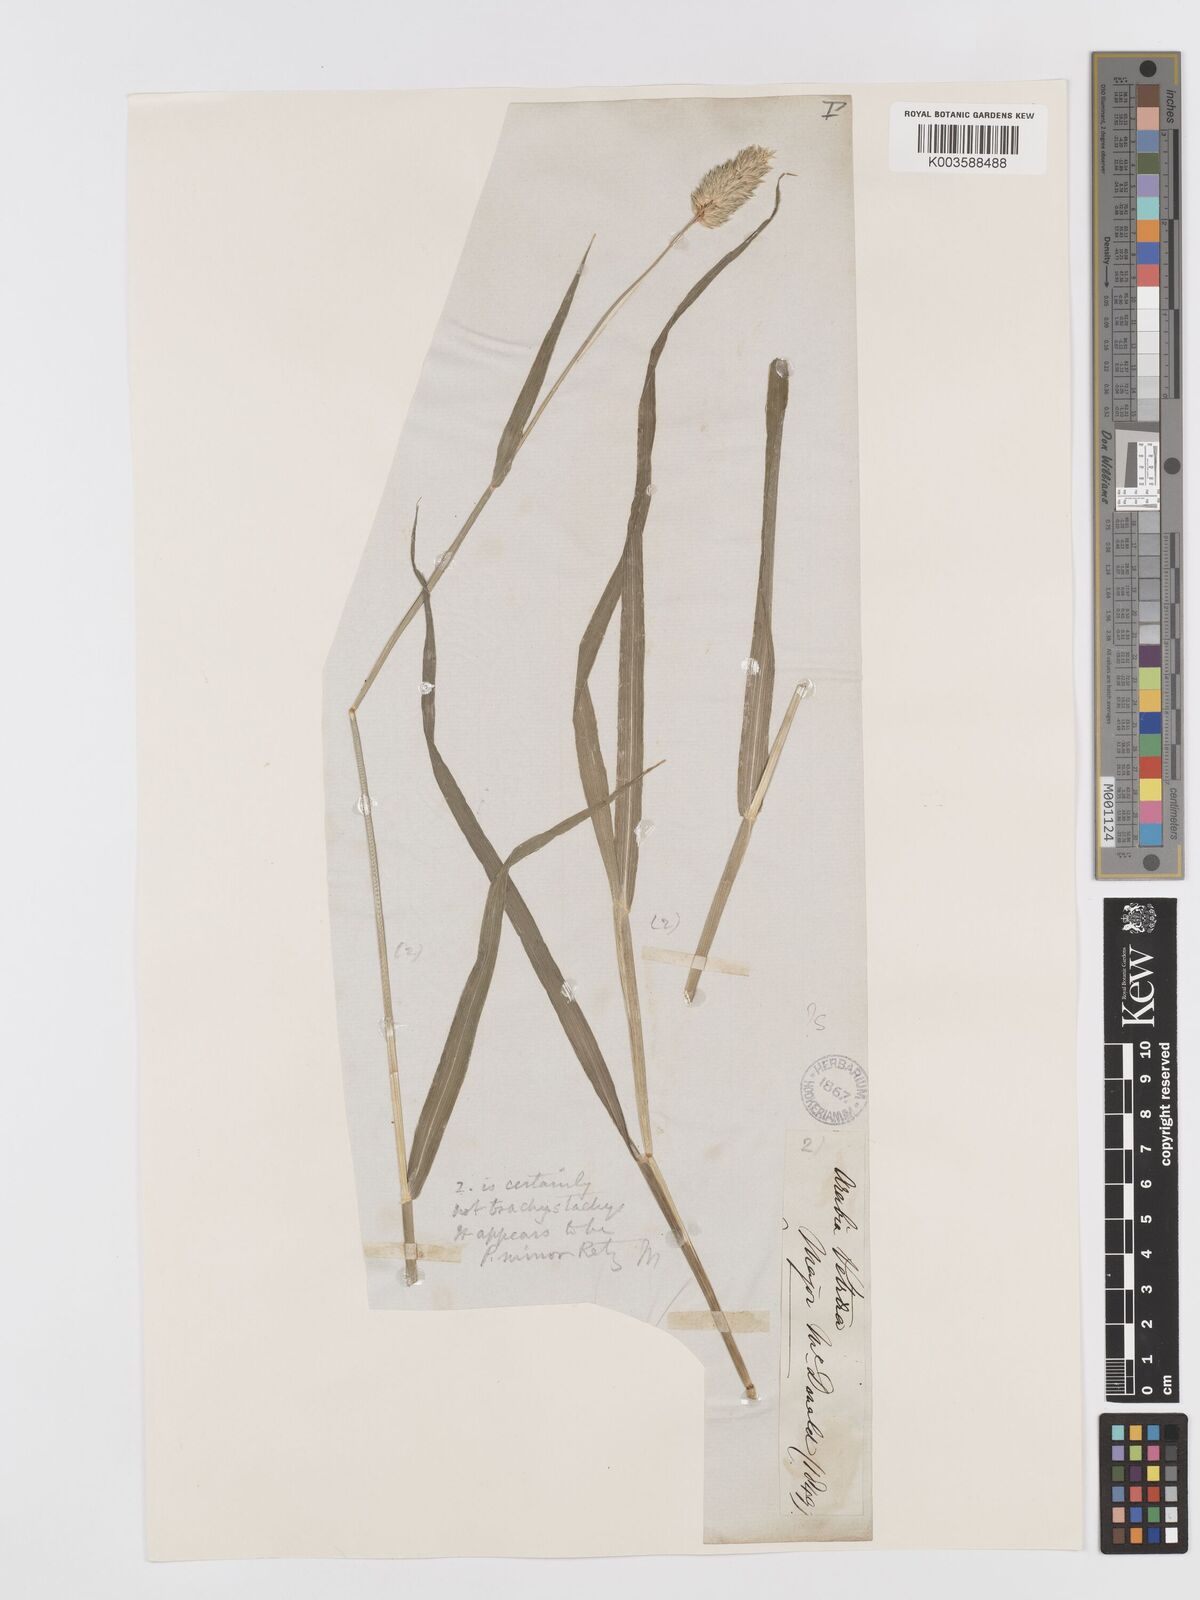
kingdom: Plantae
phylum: Tracheophyta
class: Liliopsida
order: Poales
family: Poaceae
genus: Phalaris
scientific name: Phalaris minor
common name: Littleseed canarygrass
